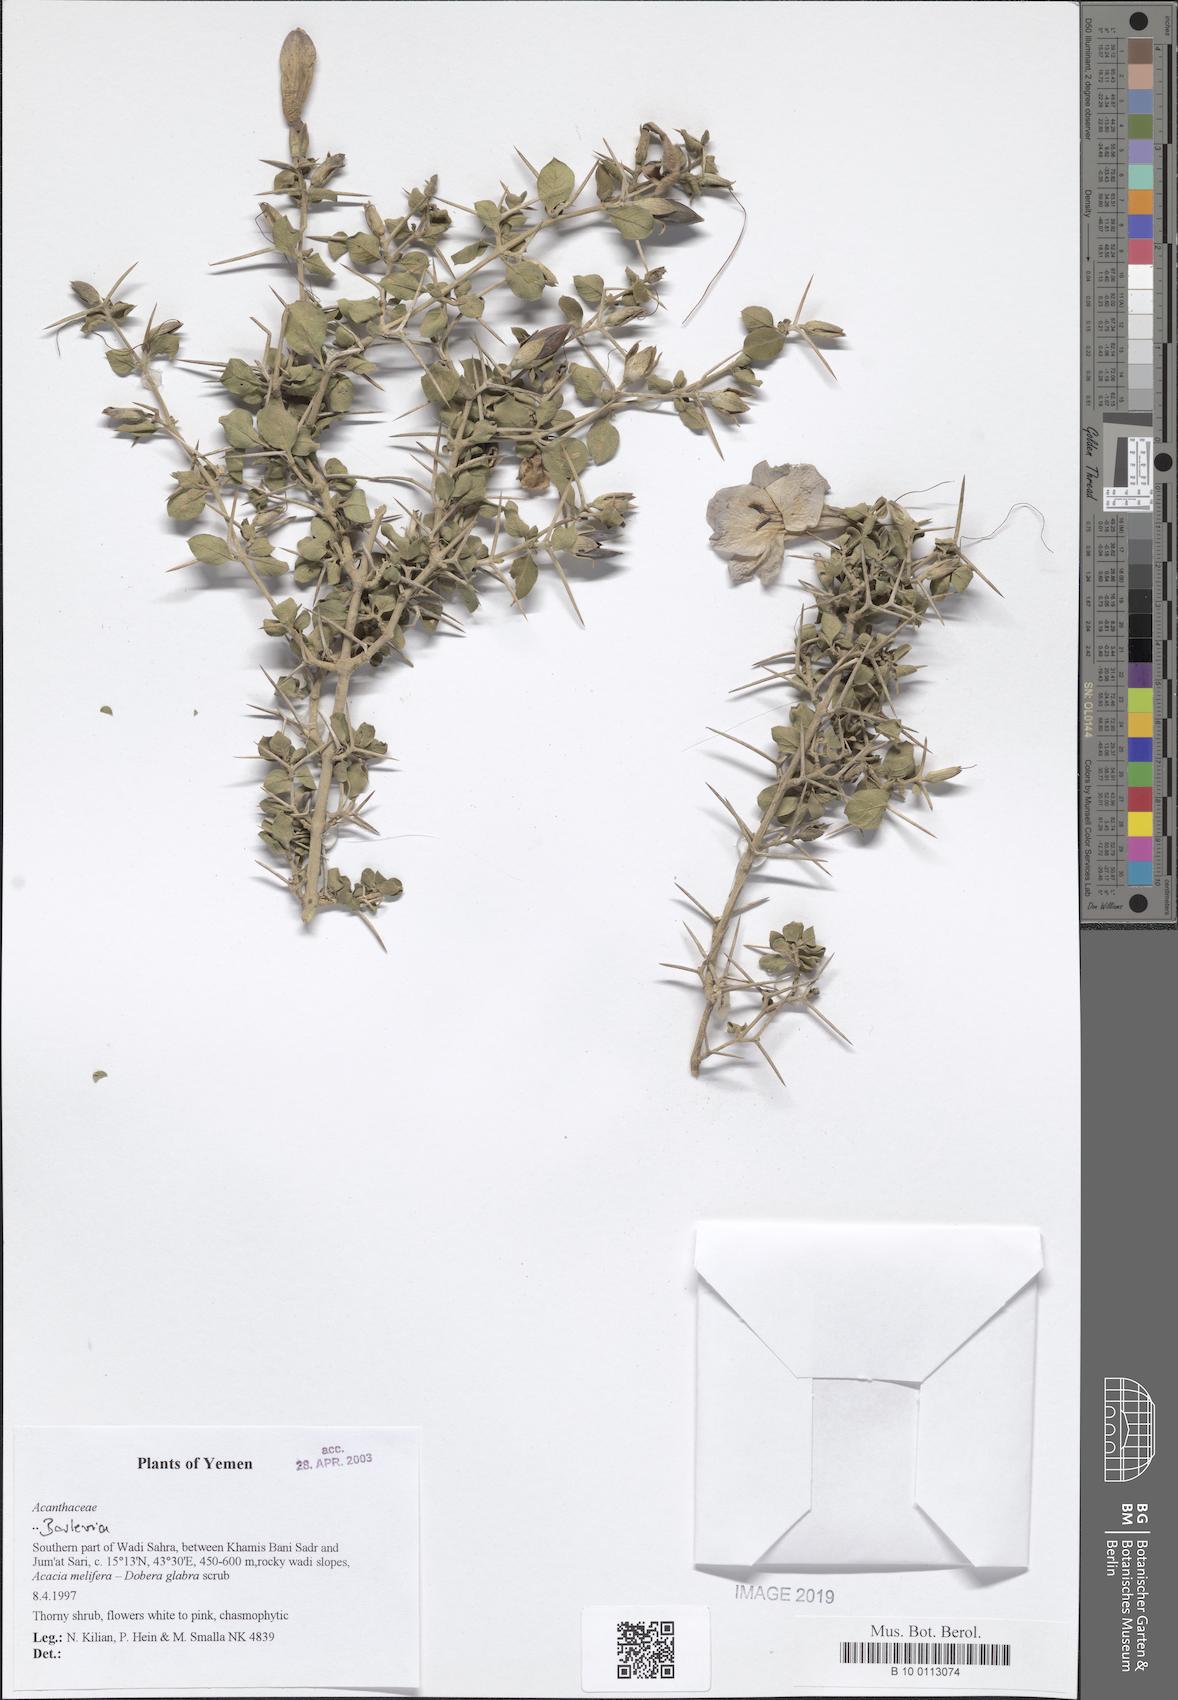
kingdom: Plantae
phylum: Tracheophyta
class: Magnoliopsida
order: Lamiales
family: Acanthaceae
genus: Barleria
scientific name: Barleria
